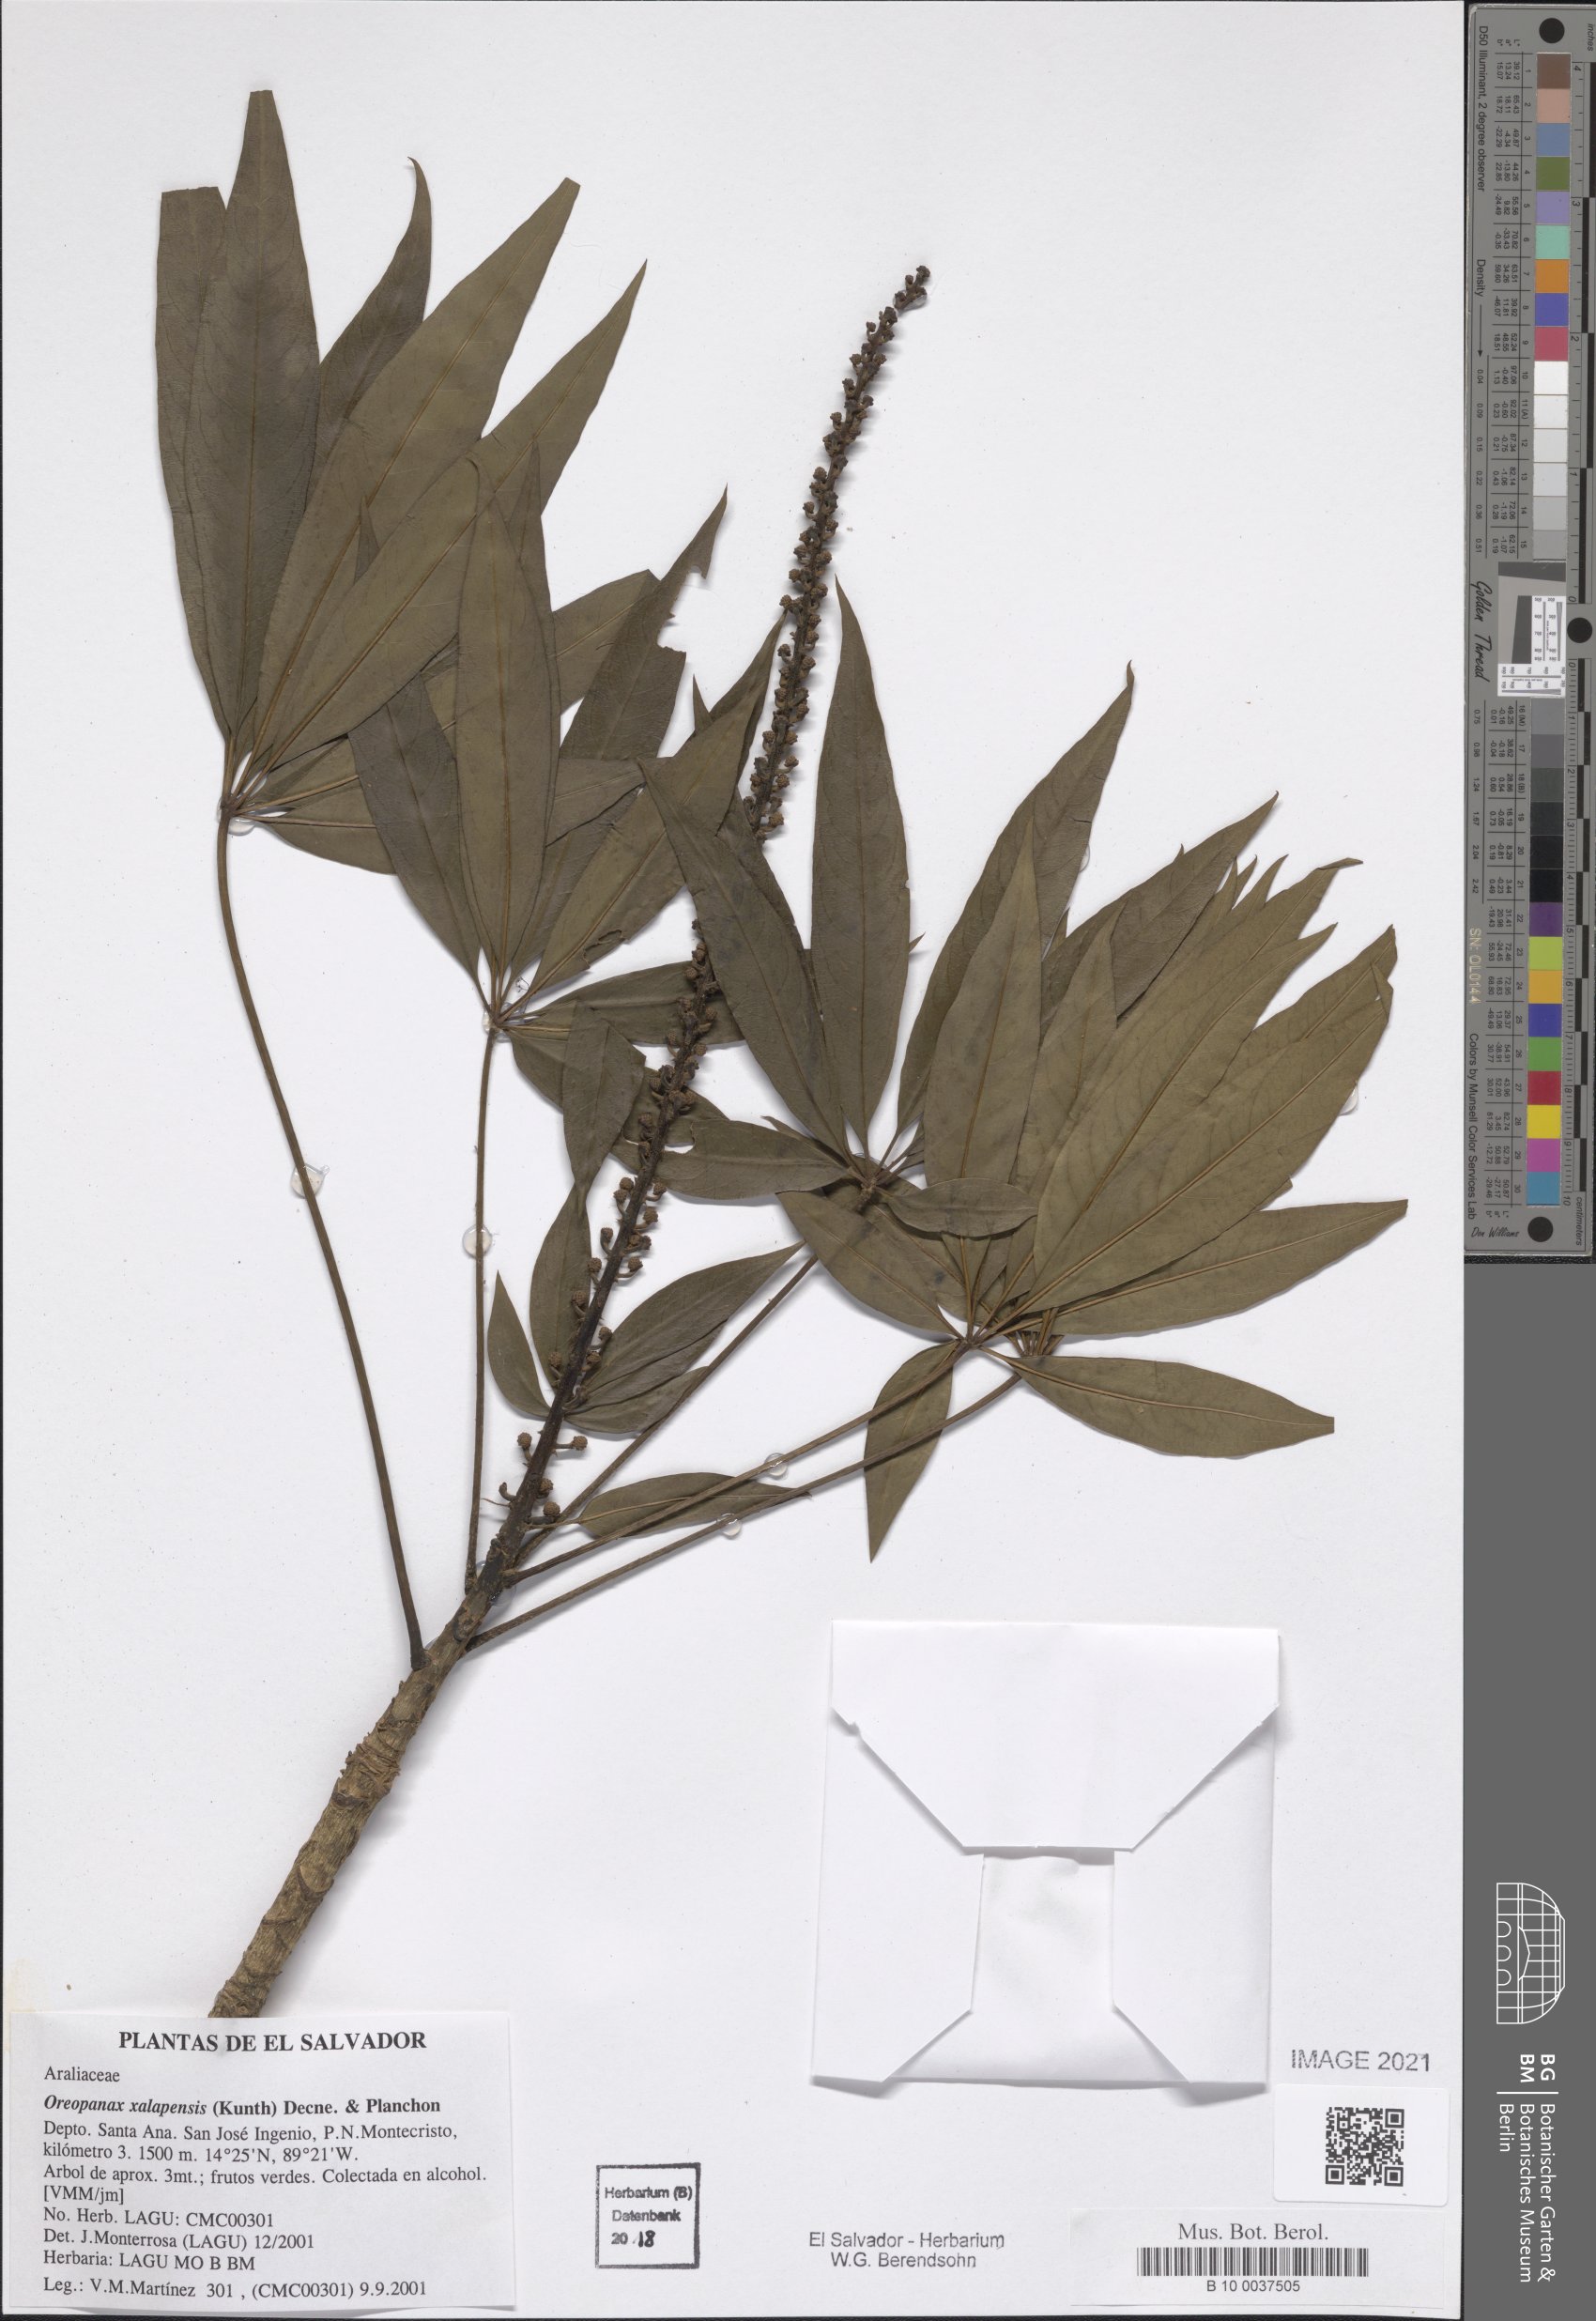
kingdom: Plantae
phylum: Tracheophyta
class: Magnoliopsida
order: Apiales
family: Araliaceae
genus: Oreopanax
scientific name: Oreopanax xalapensis
